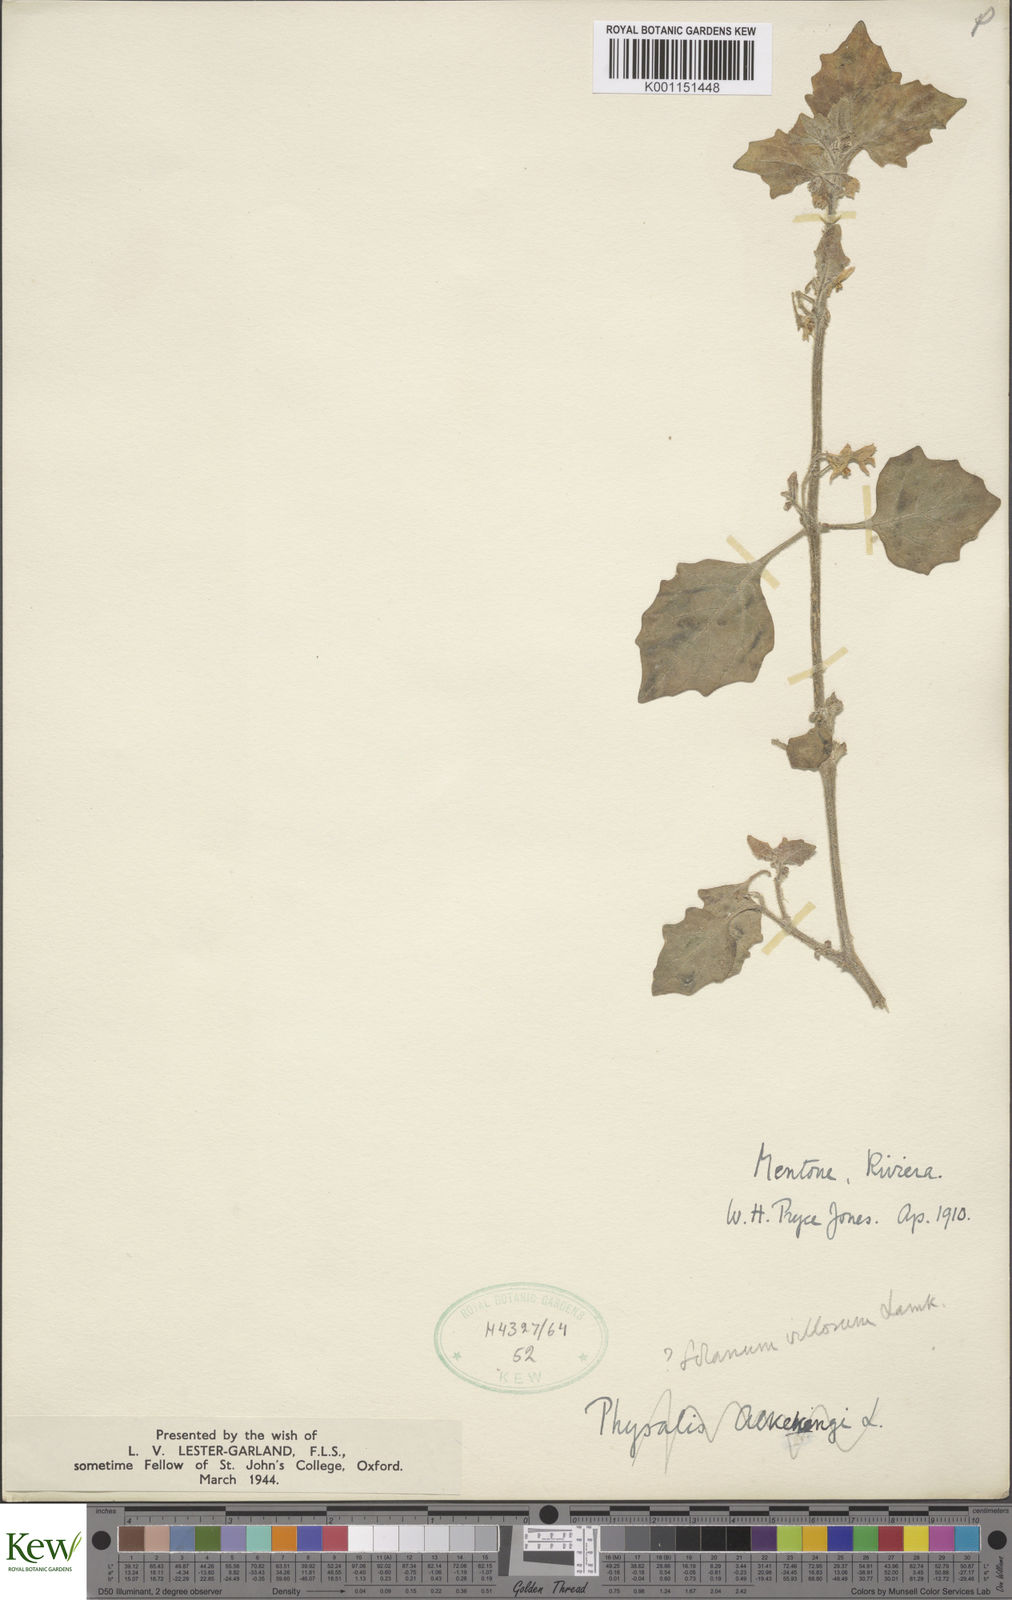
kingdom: Plantae
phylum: Tracheophyta
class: Magnoliopsida
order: Solanales
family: Solanaceae
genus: Solanum
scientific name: Solanum villosum
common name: Red nightshade
